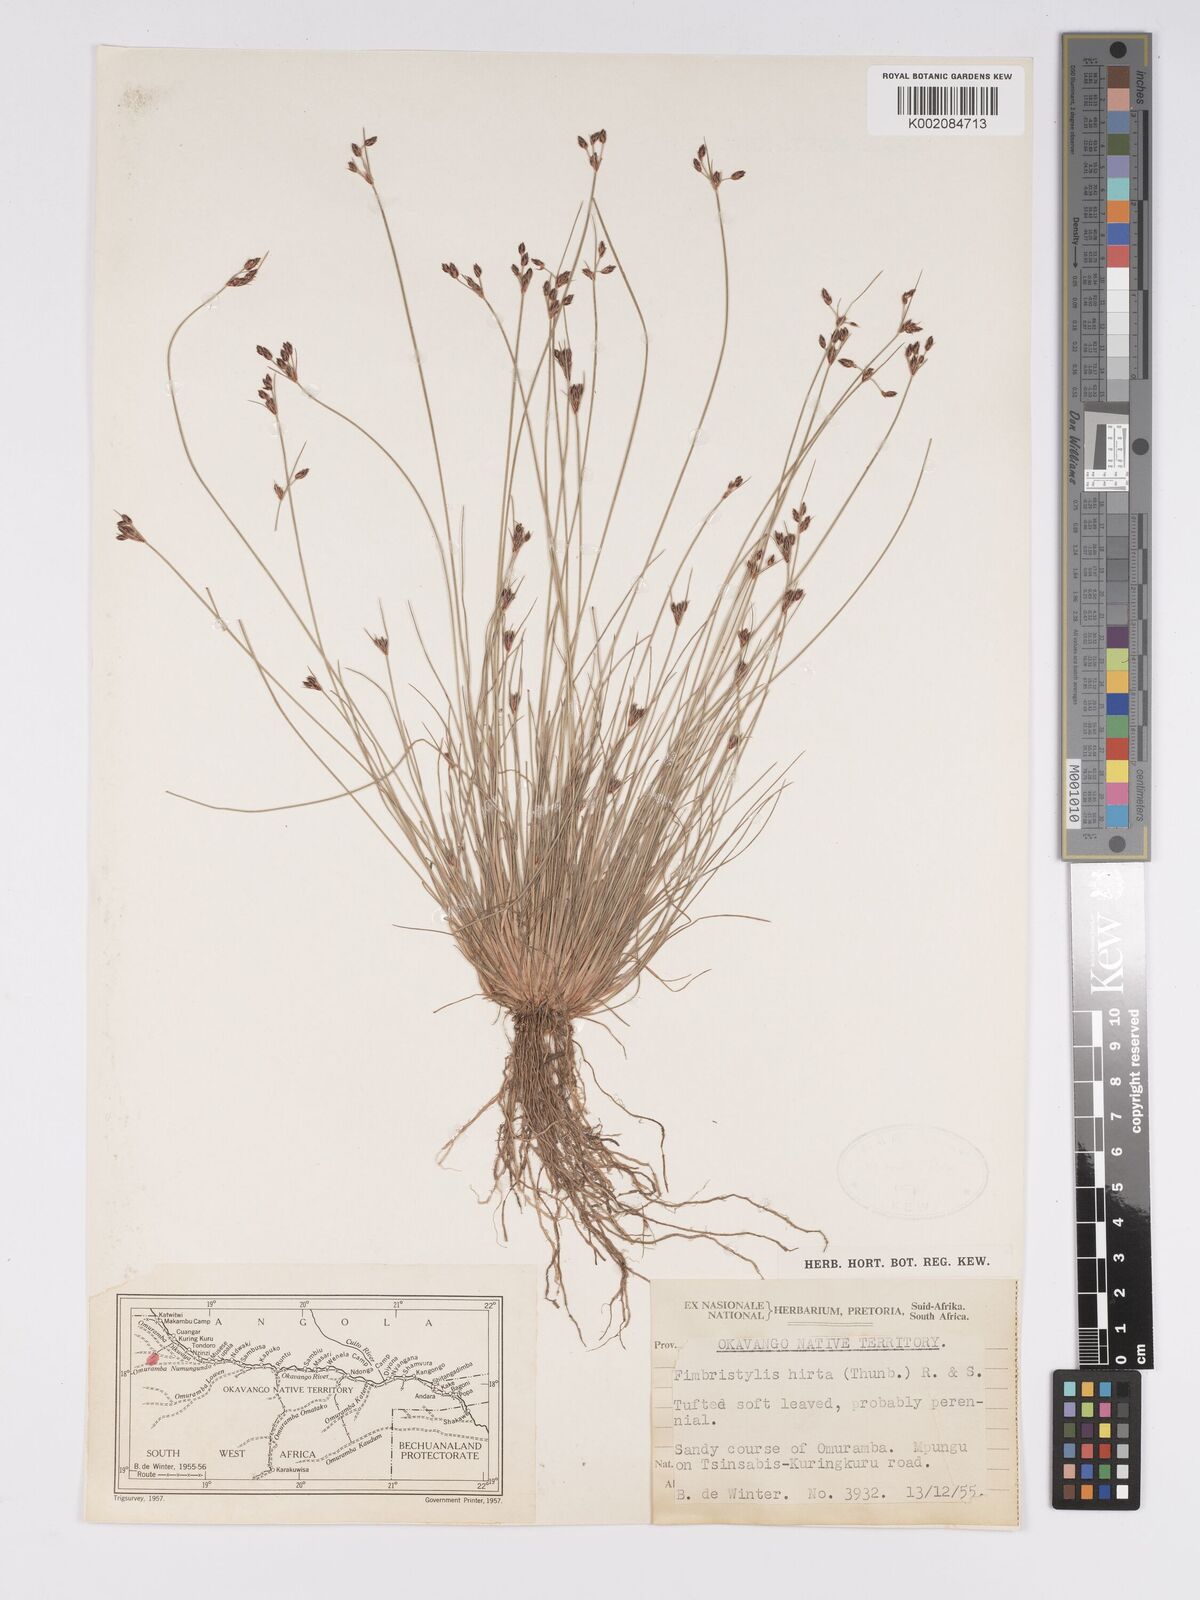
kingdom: Plantae
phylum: Tracheophyta
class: Liliopsida
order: Poales
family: Cyperaceae
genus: Bulbostylis
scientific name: Bulbostylis hispidula
